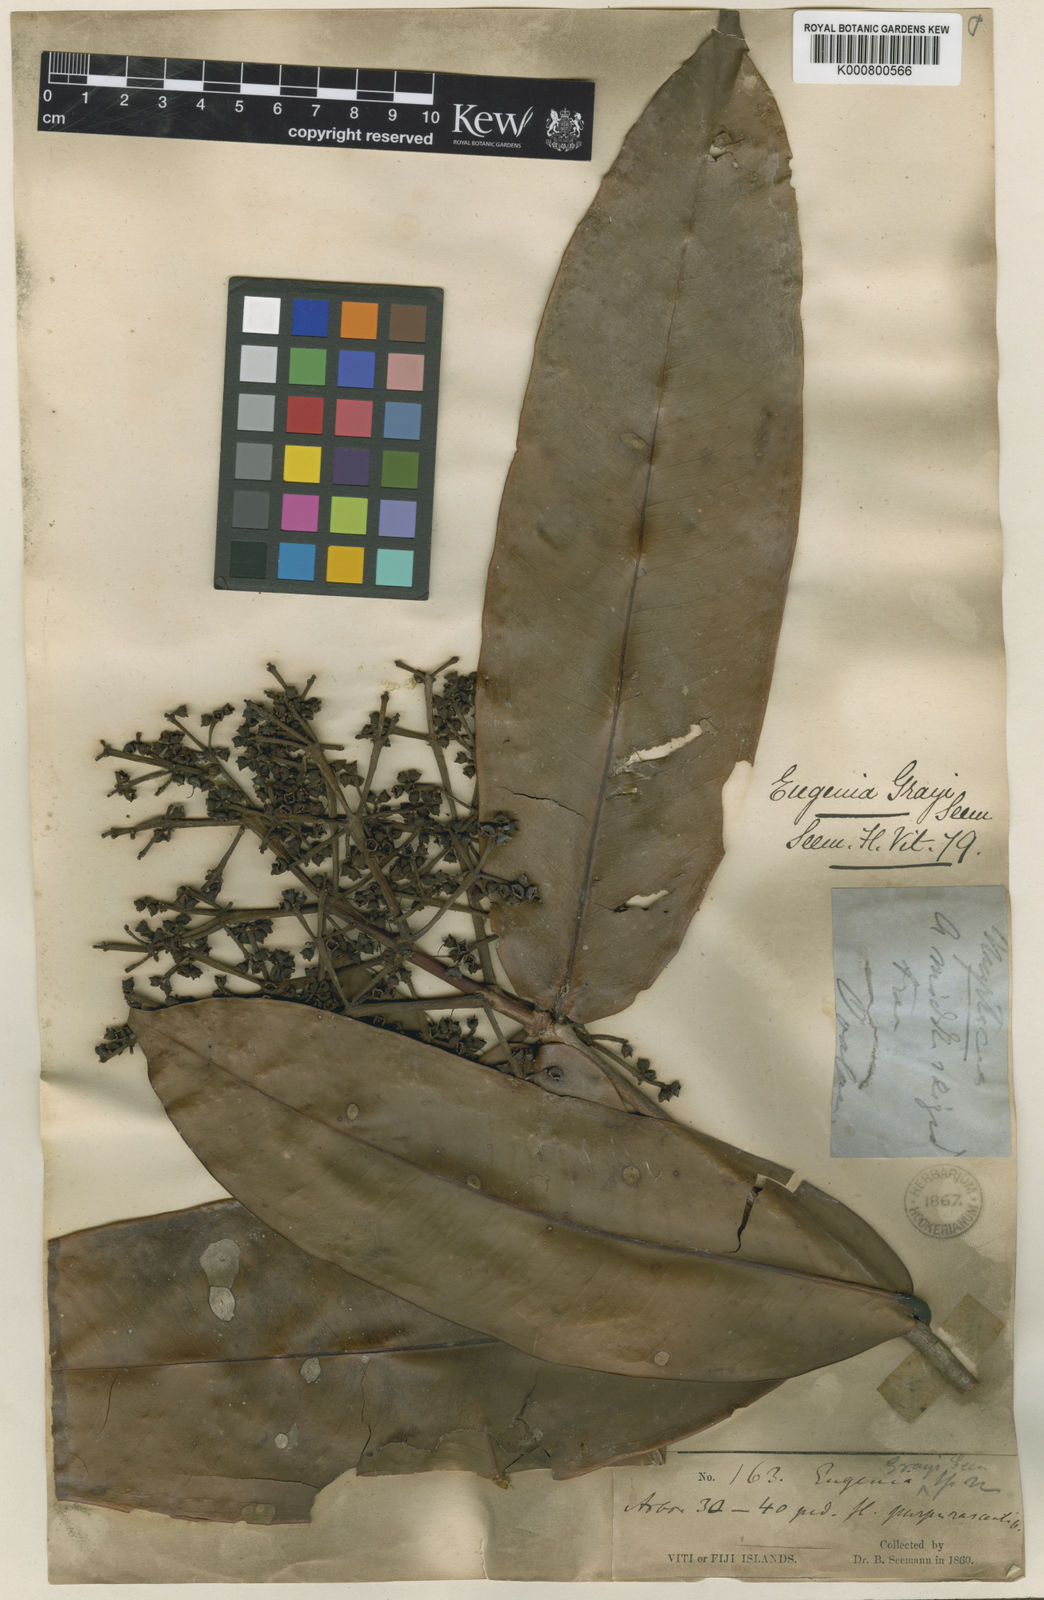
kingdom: Plantae
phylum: Tracheophyta
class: Magnoliopsida
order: Myrtales
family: Myrtaceae
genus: Syzygium
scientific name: Syzygium grayi
